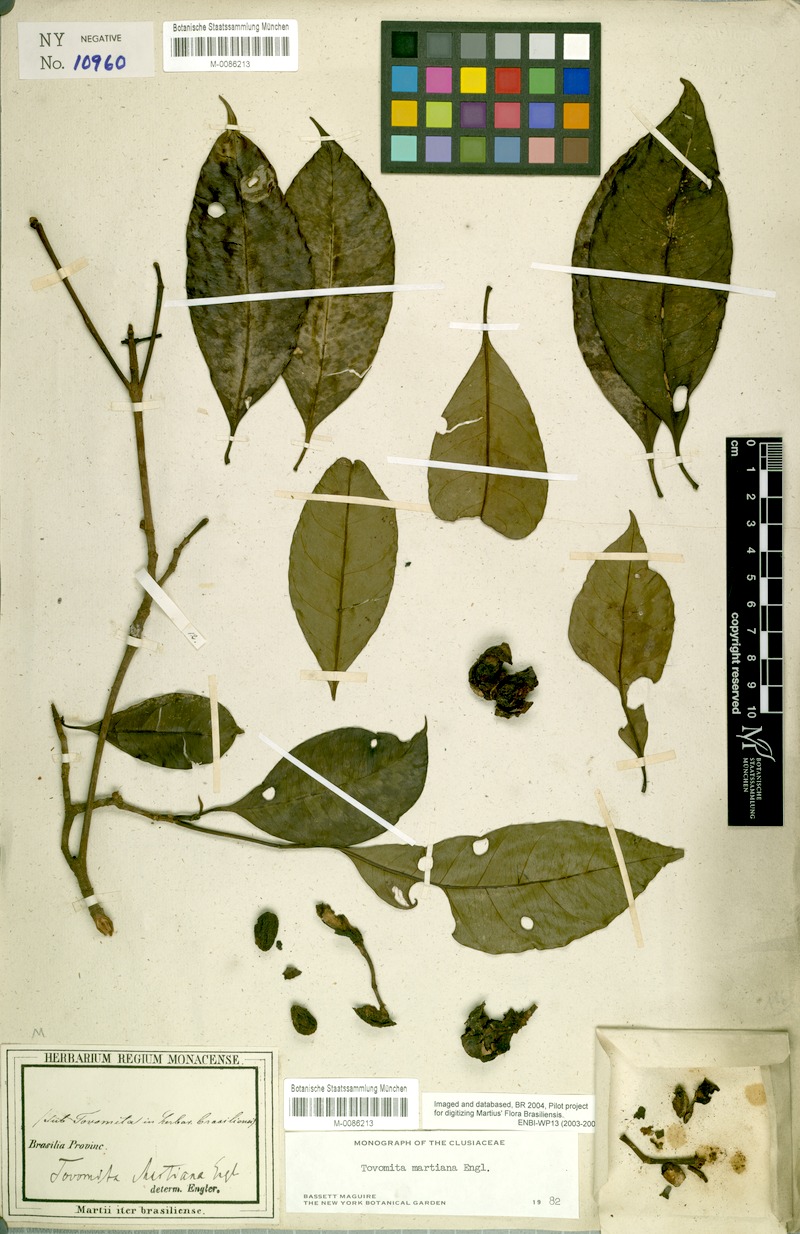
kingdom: Plantae
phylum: Tracheophyta
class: Magnoliopsida
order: Malpighiales
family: Clusiaceae
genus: Tovomita
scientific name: Tovomita martiana
